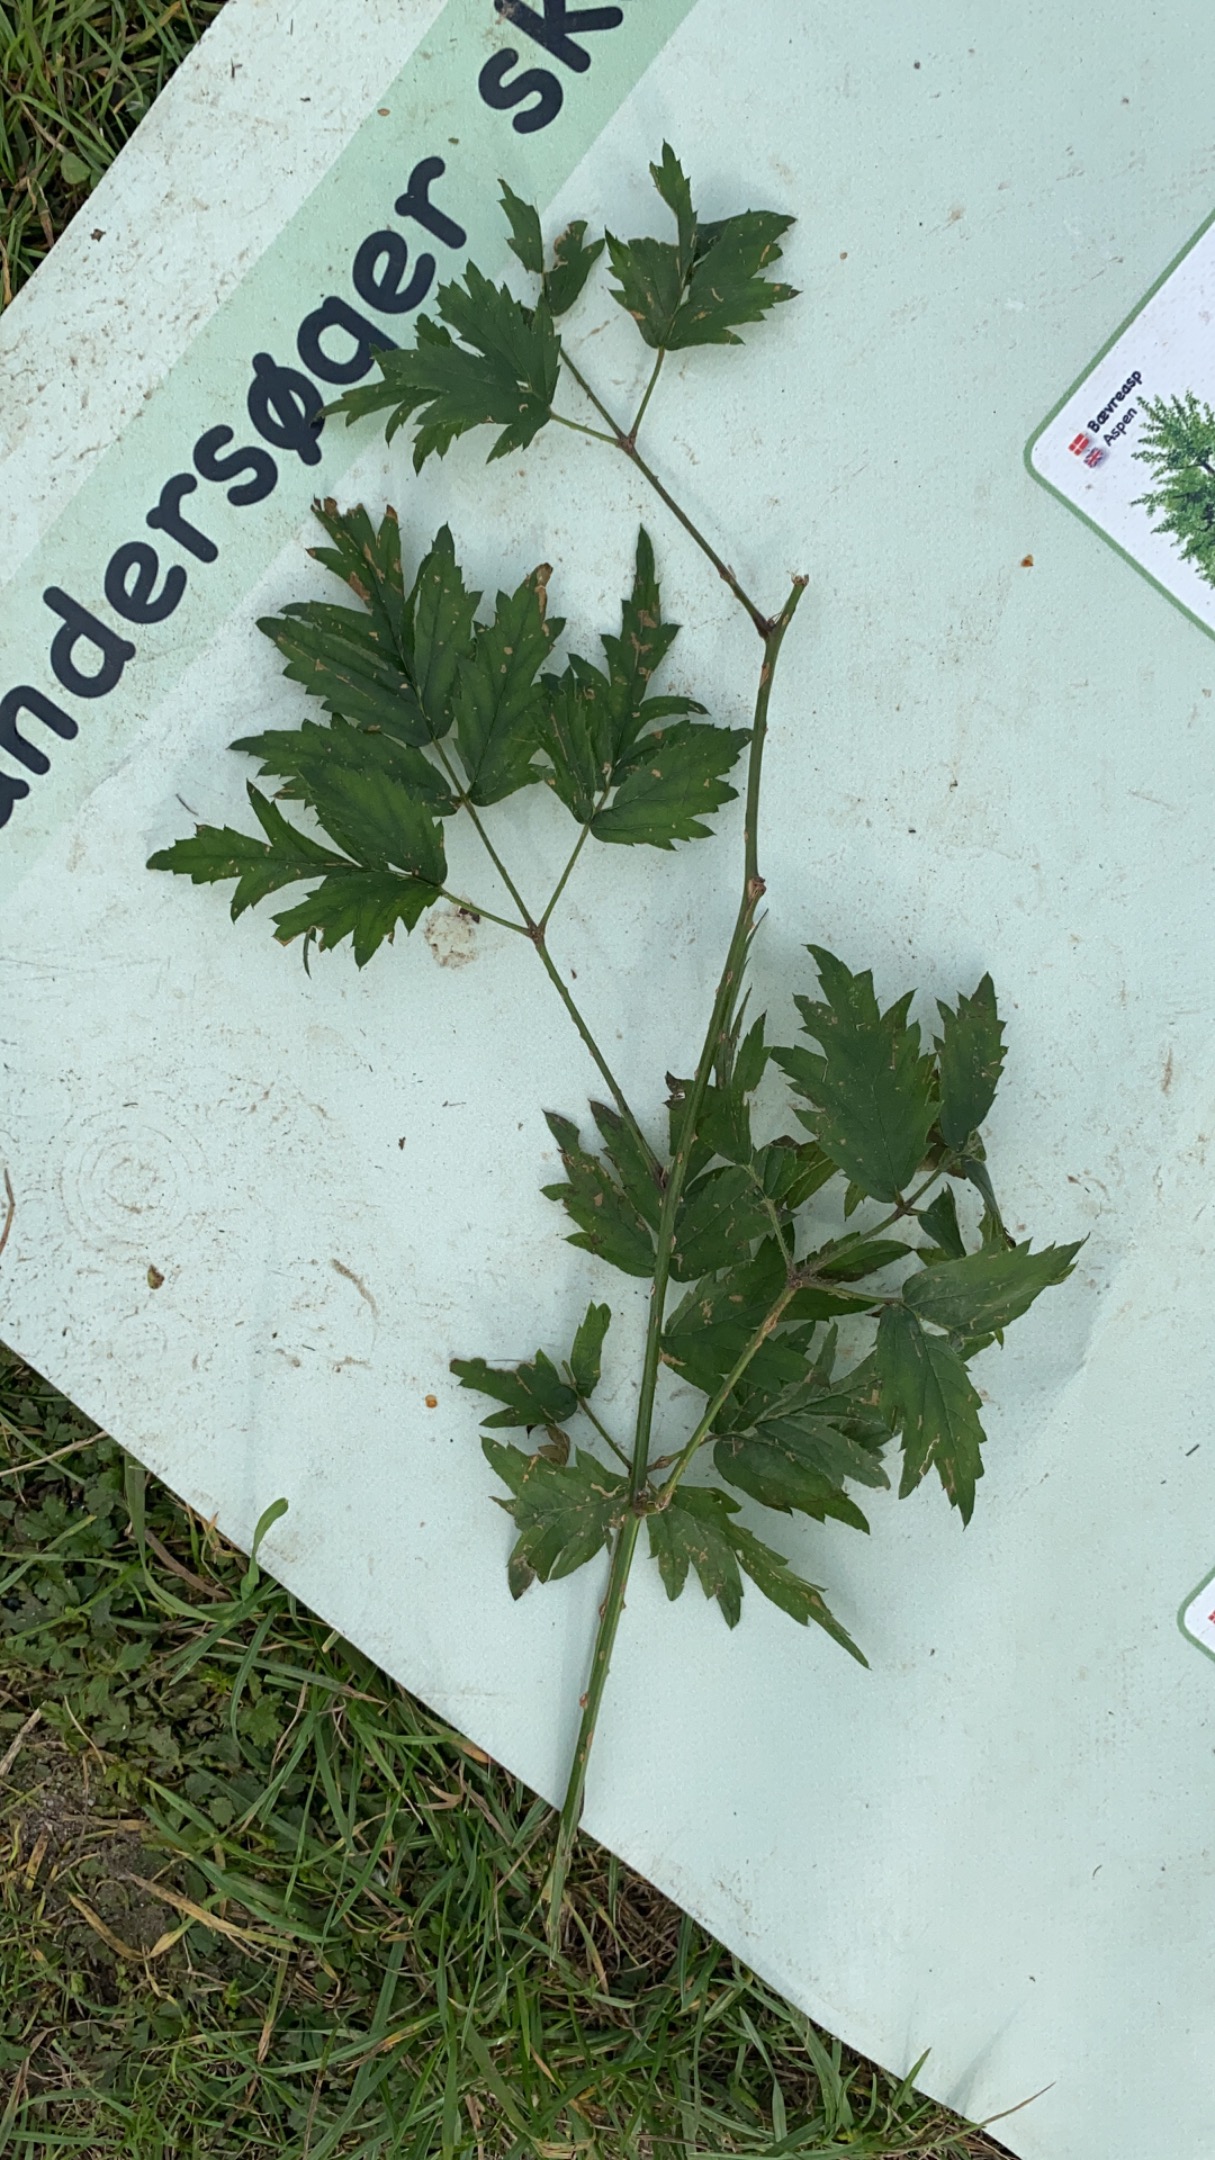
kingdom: Plantae
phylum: Tracheophyta
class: Magnoliopsida
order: Rosales
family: Rosaceae
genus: Rubus
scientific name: Rubus laciniatus
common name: Fliget brombær
